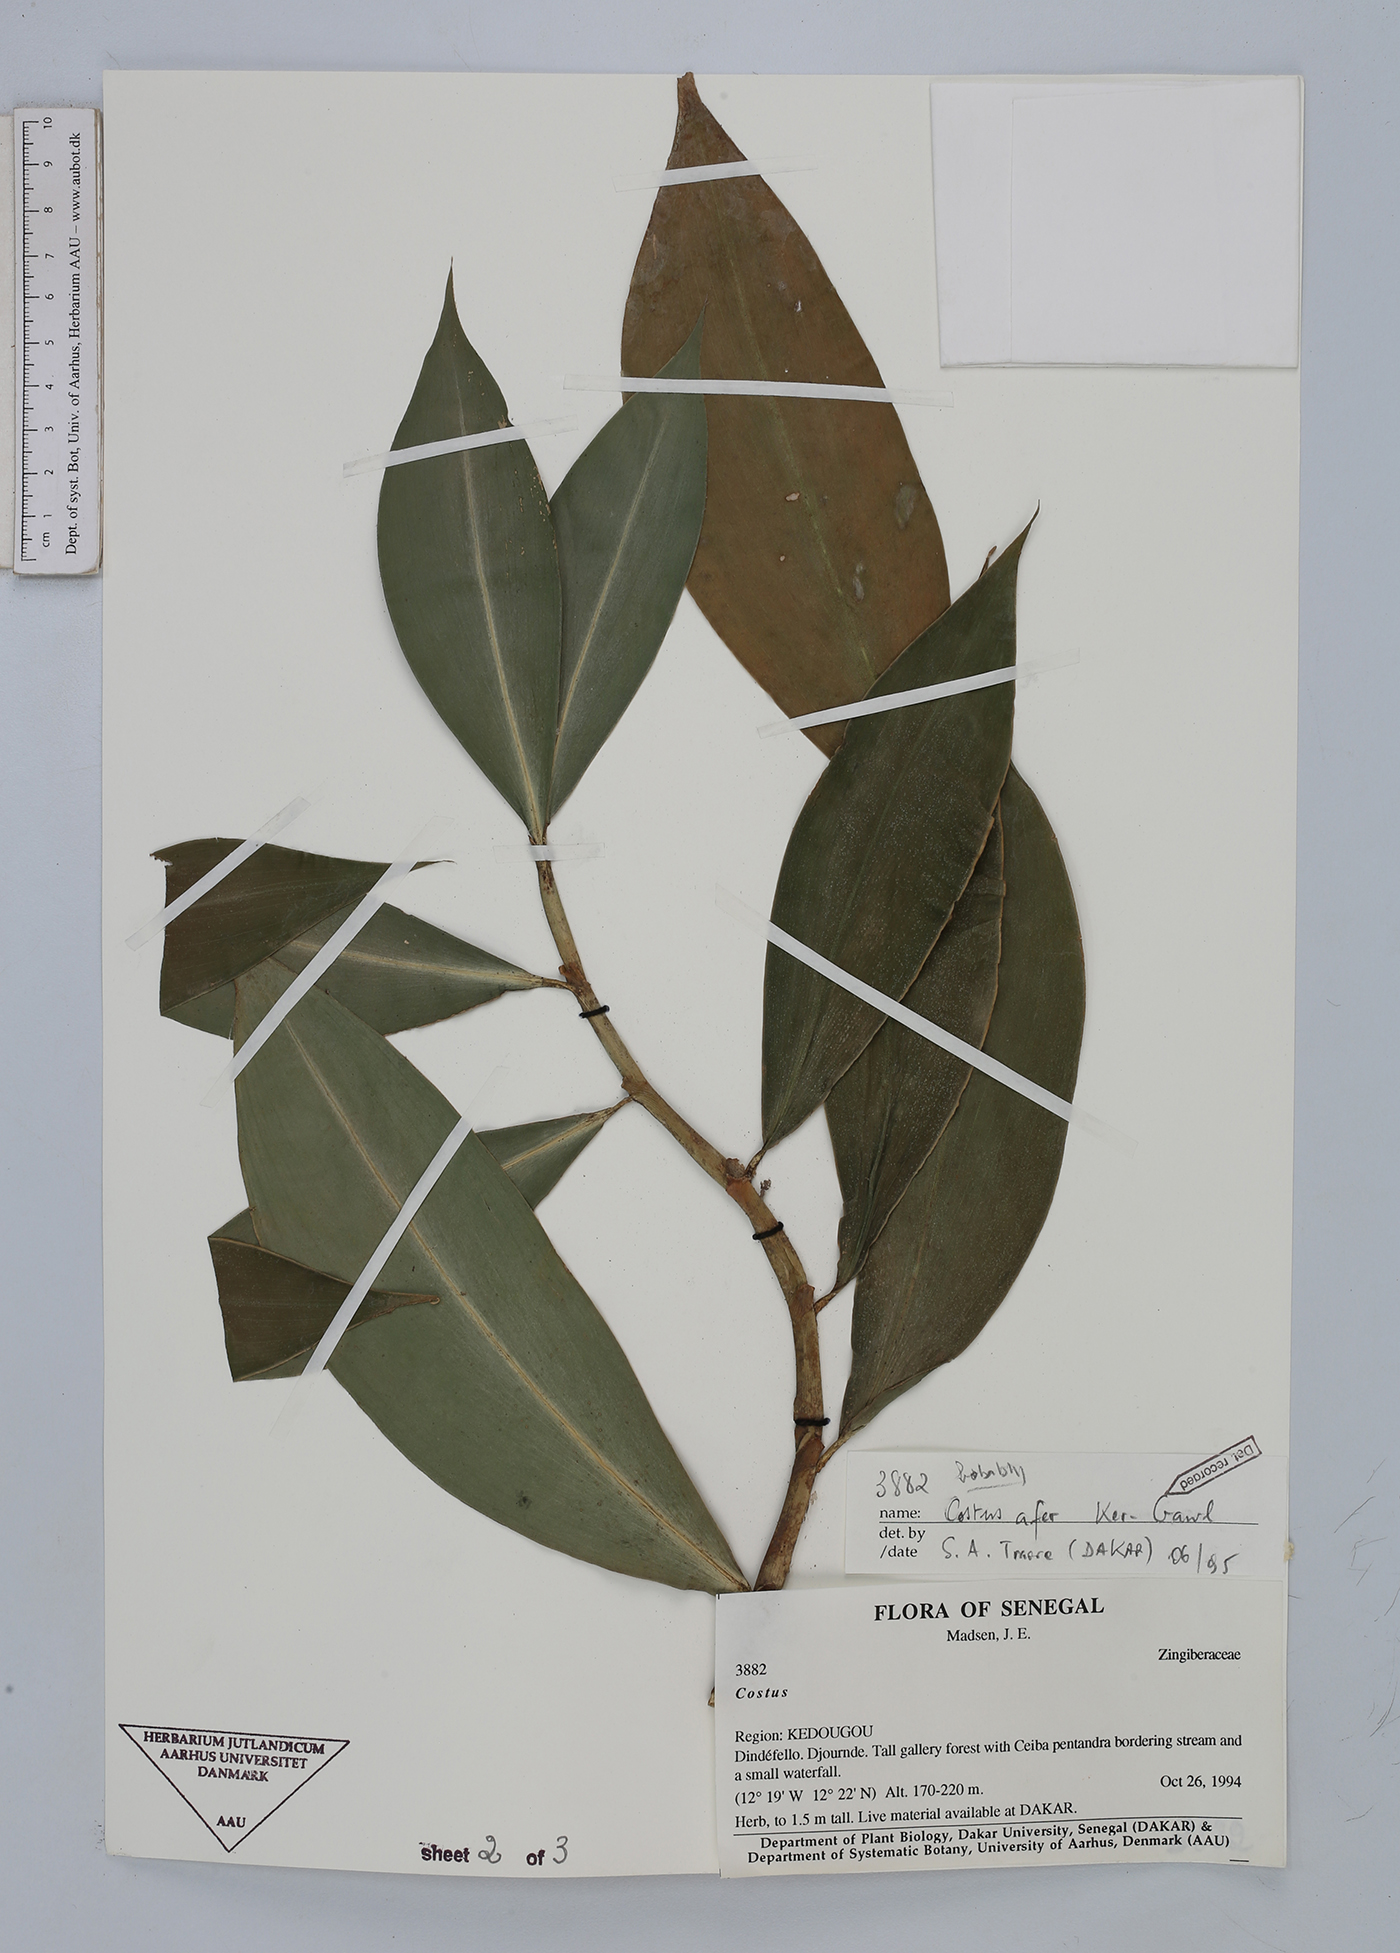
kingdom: Plantae
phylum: Tracheophyta
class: Liliopsida
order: Zingiberales
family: Costaceae
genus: Costus
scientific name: Costus afer
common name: Spiral-ginger
